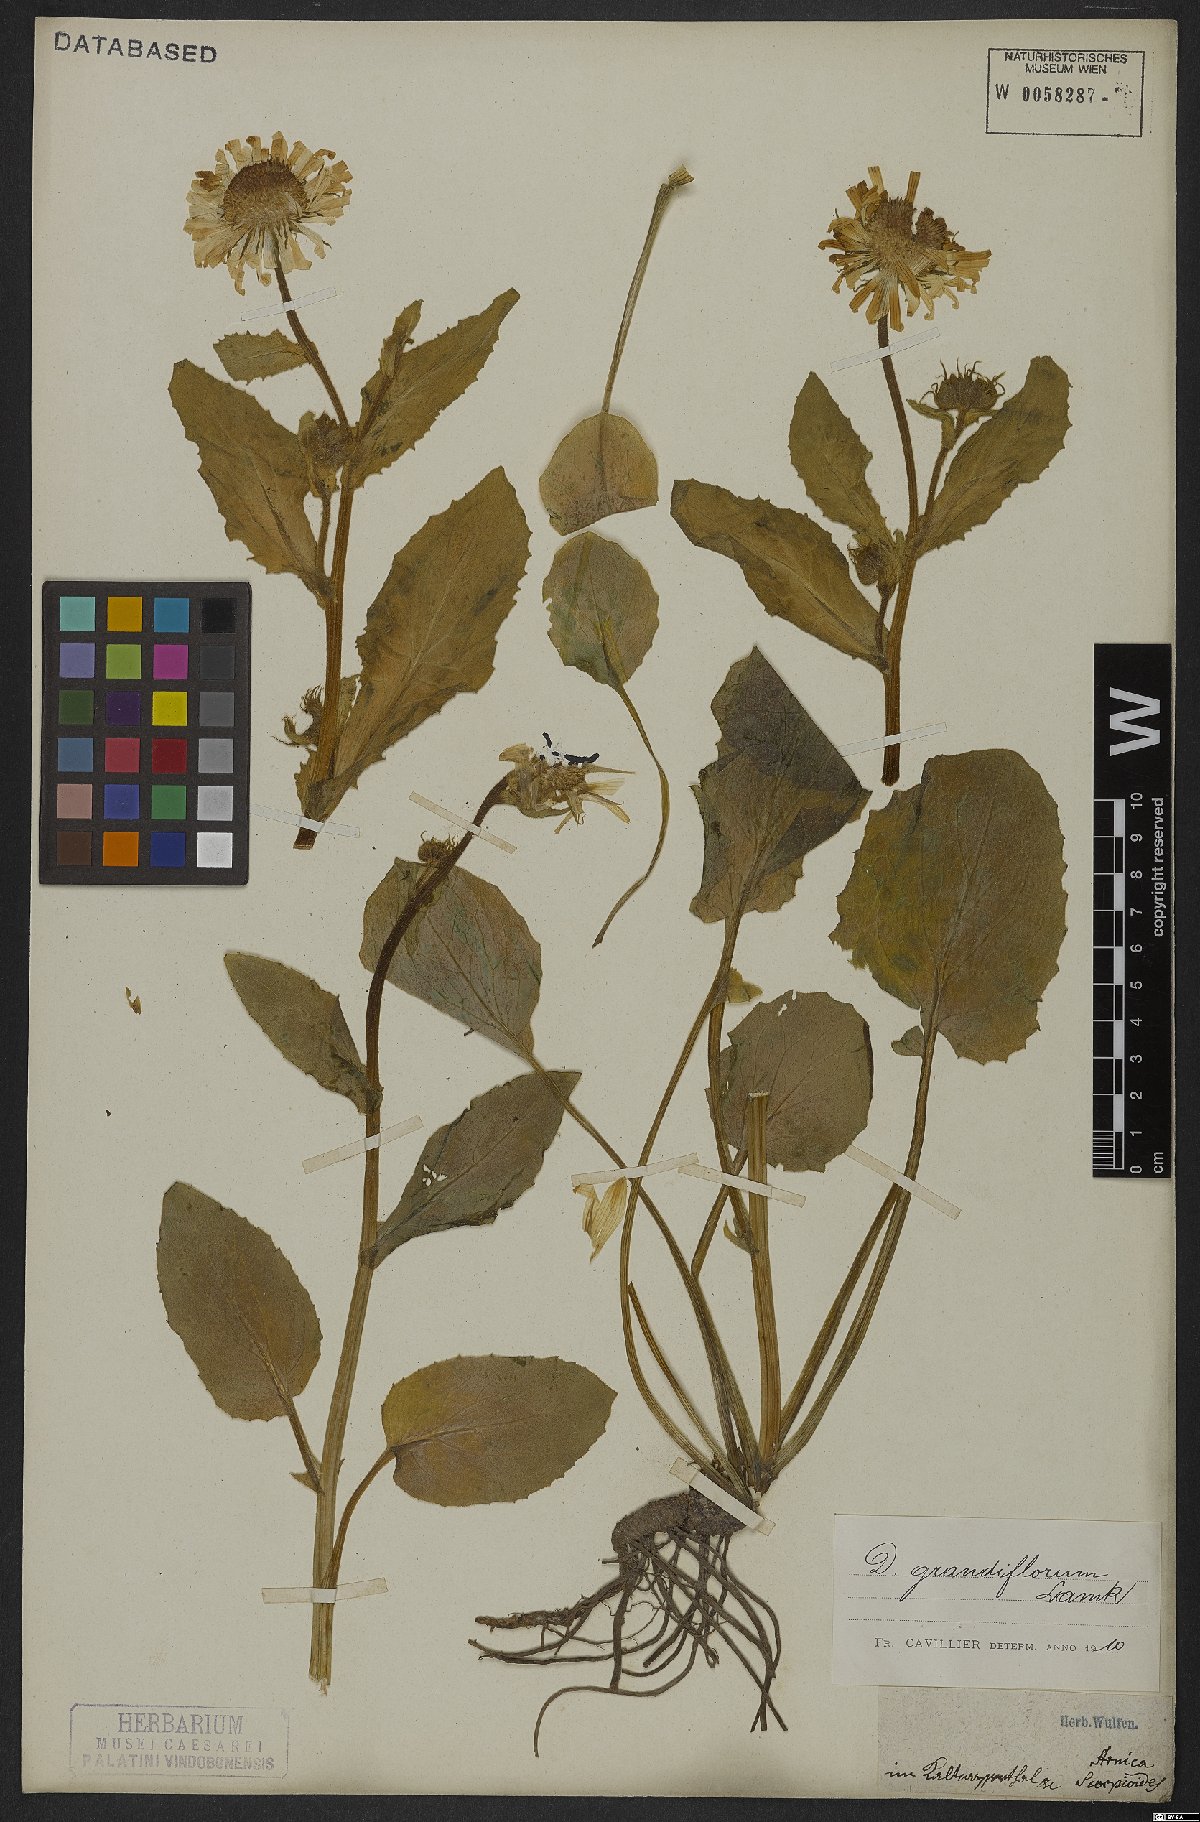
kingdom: Plantae
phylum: Tracheophyta
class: Magnoliopsida
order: Asterales
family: Asteraceae
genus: Doronicum
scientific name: Doronicum grandiflorum
